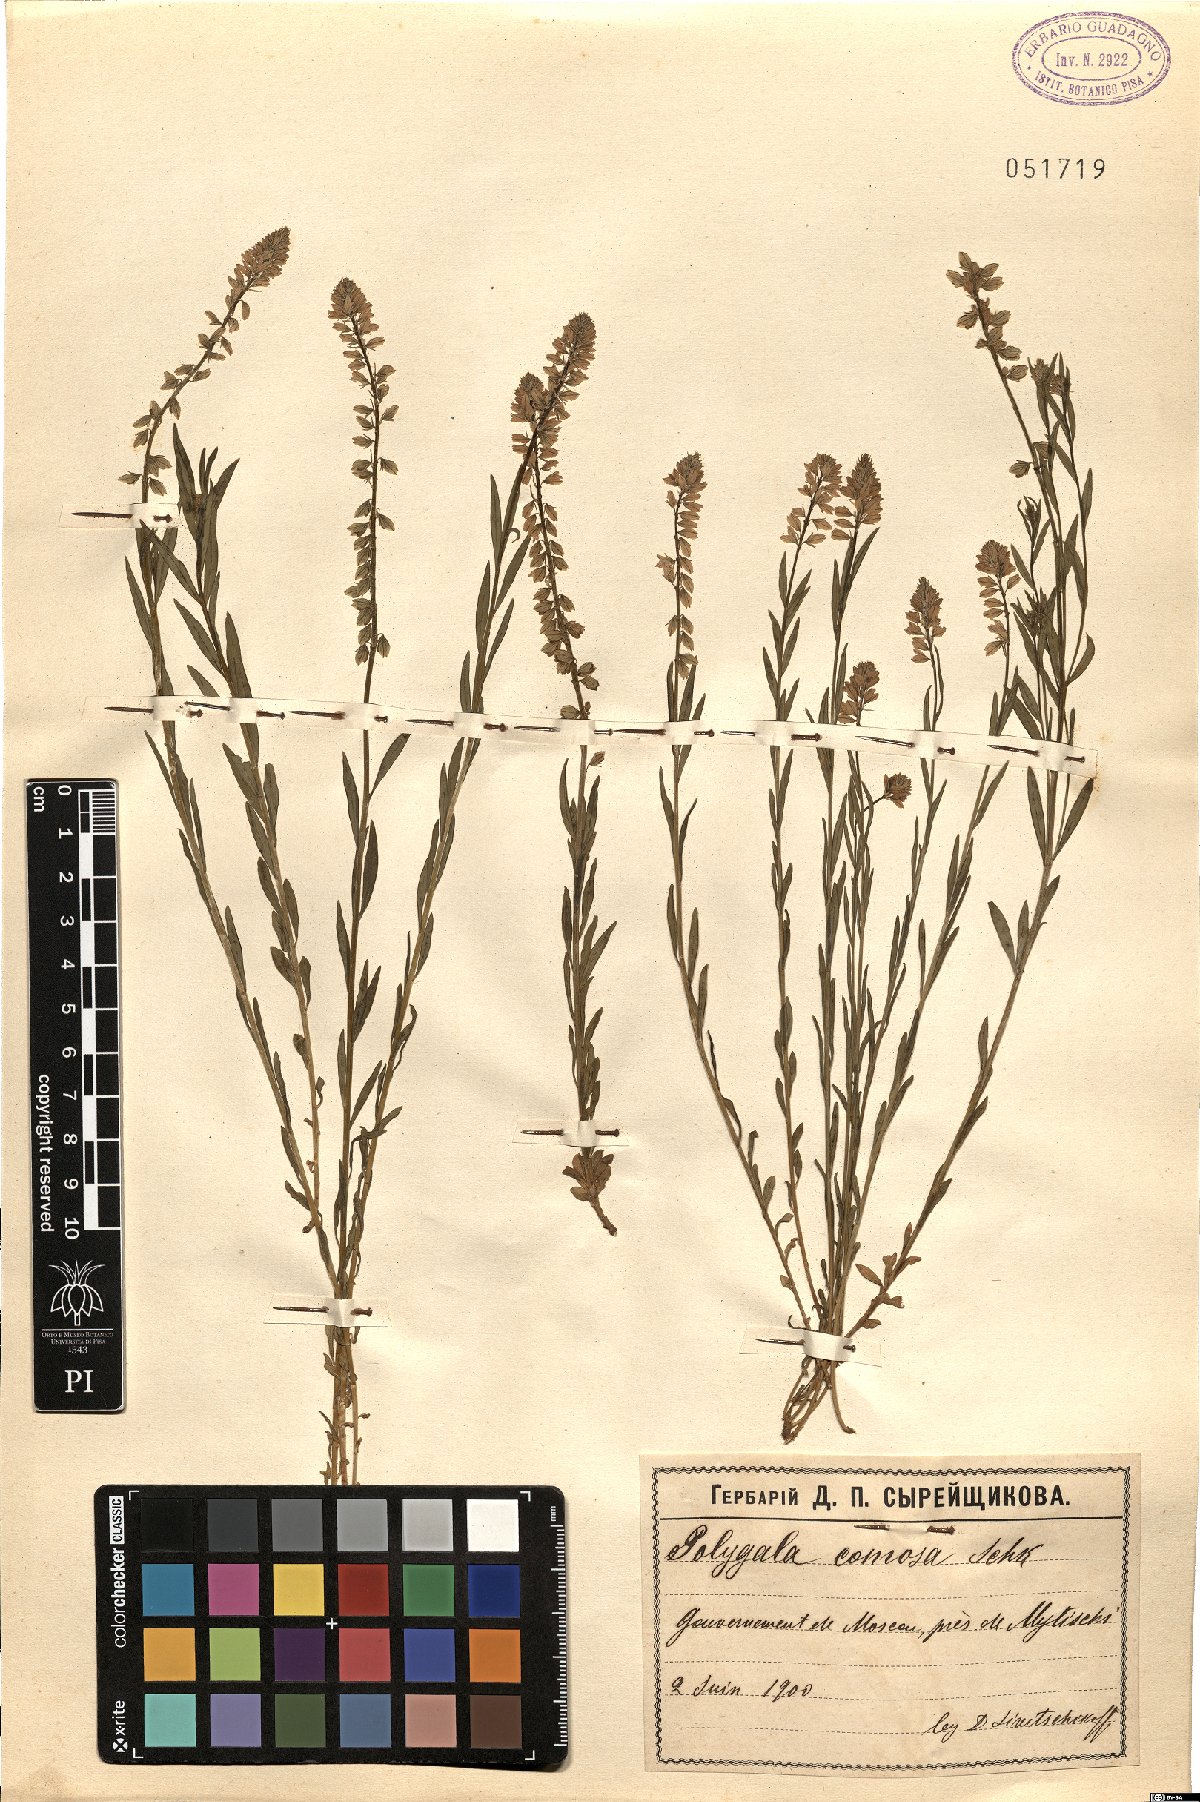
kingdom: Plantae
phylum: Tracheophyta
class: Magnoliopsida
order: Fabales
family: Polygalaceae
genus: Polygala
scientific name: Polygala comosa
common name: Tufted milkwort
